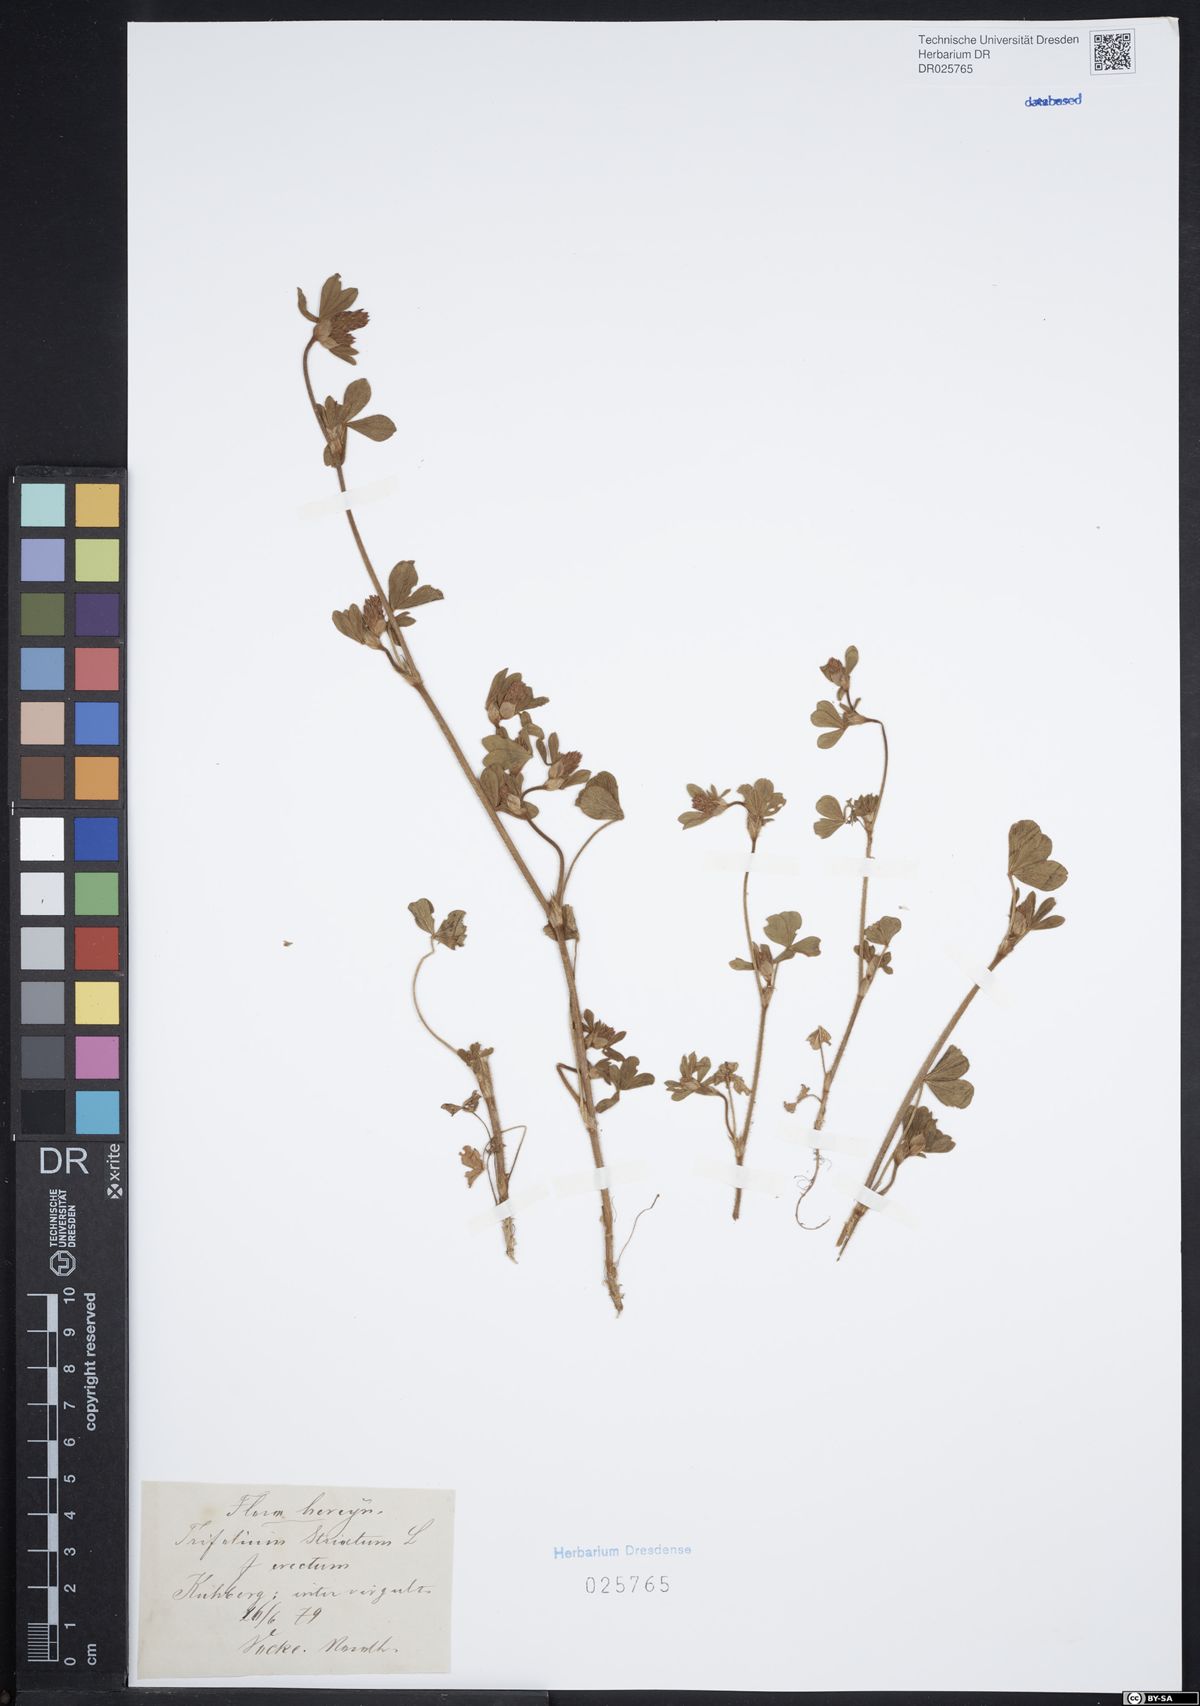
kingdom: Plantae
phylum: Tracheophyta
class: Magnoliopsida
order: Fabales
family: Fabaceae
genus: Trifolium
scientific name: Trifolium striatum
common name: Knotted clover
